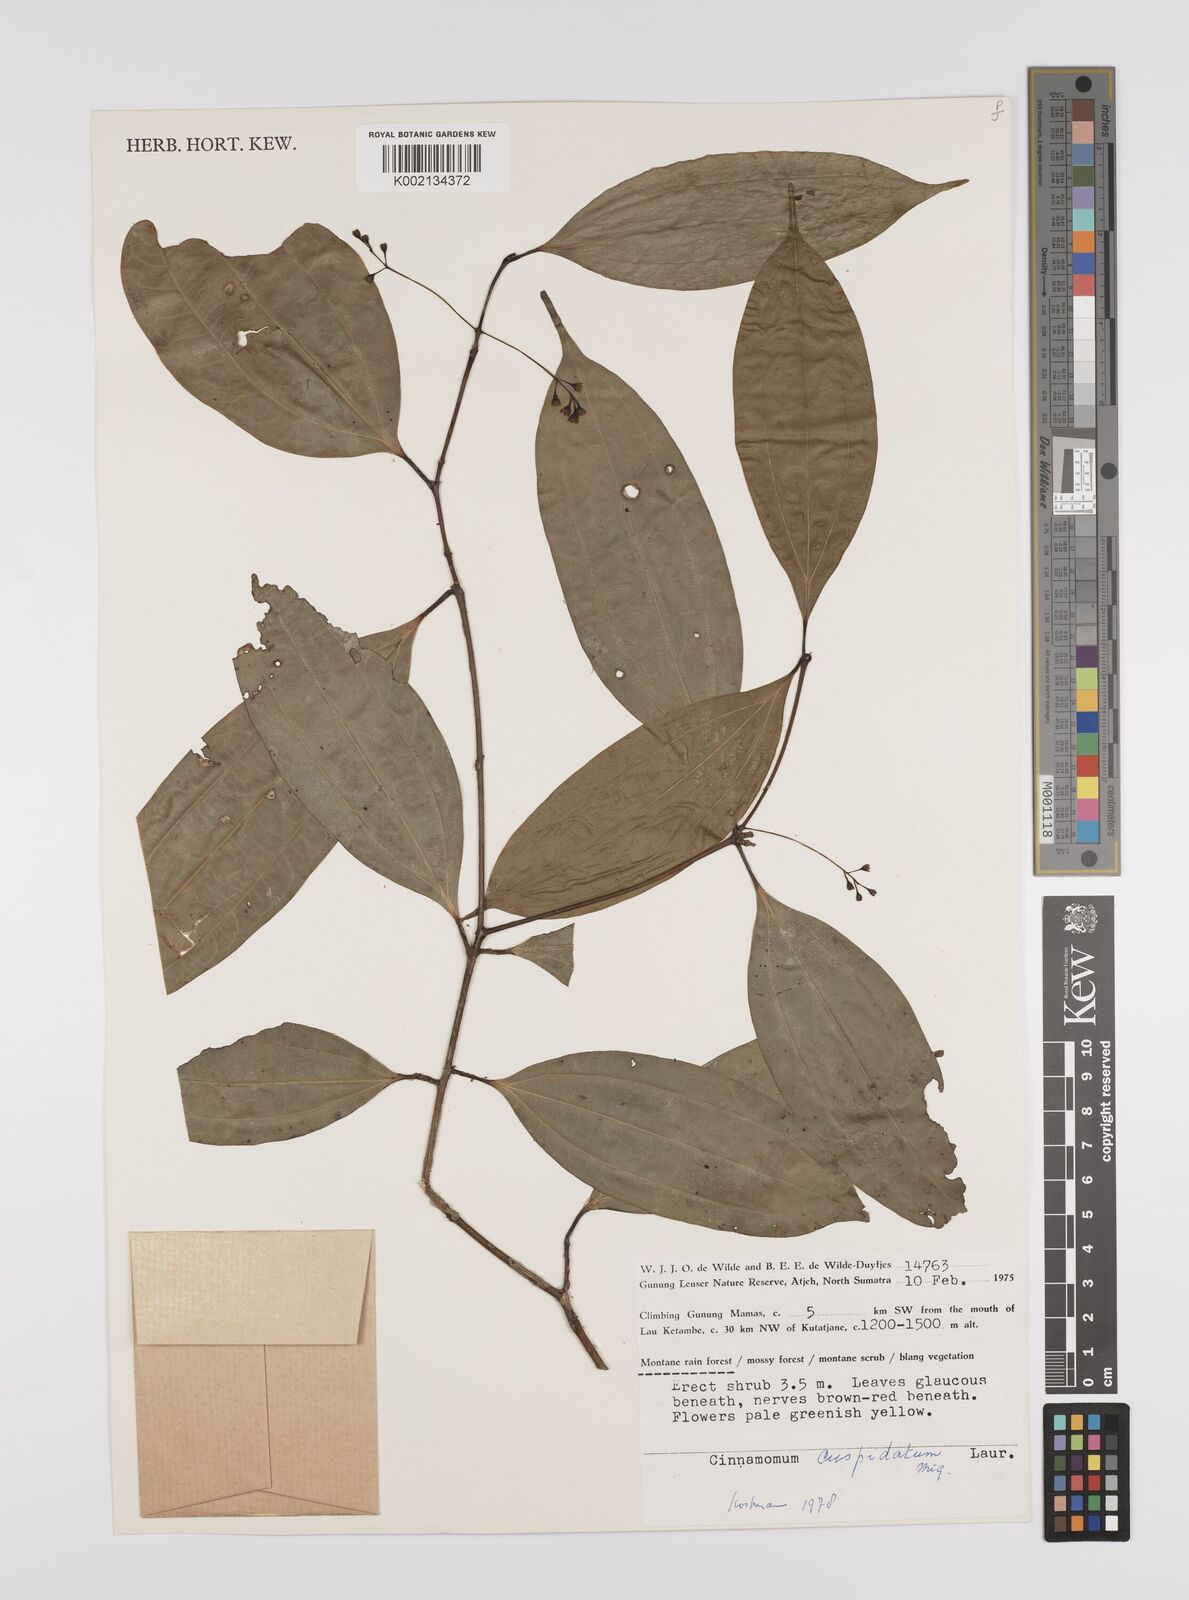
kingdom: Plantae
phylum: Tracheophyta
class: Magnoliopsida
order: Laurales
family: Lauraceae
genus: Cinnamomum
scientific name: Cinnamomum cuspidatum
